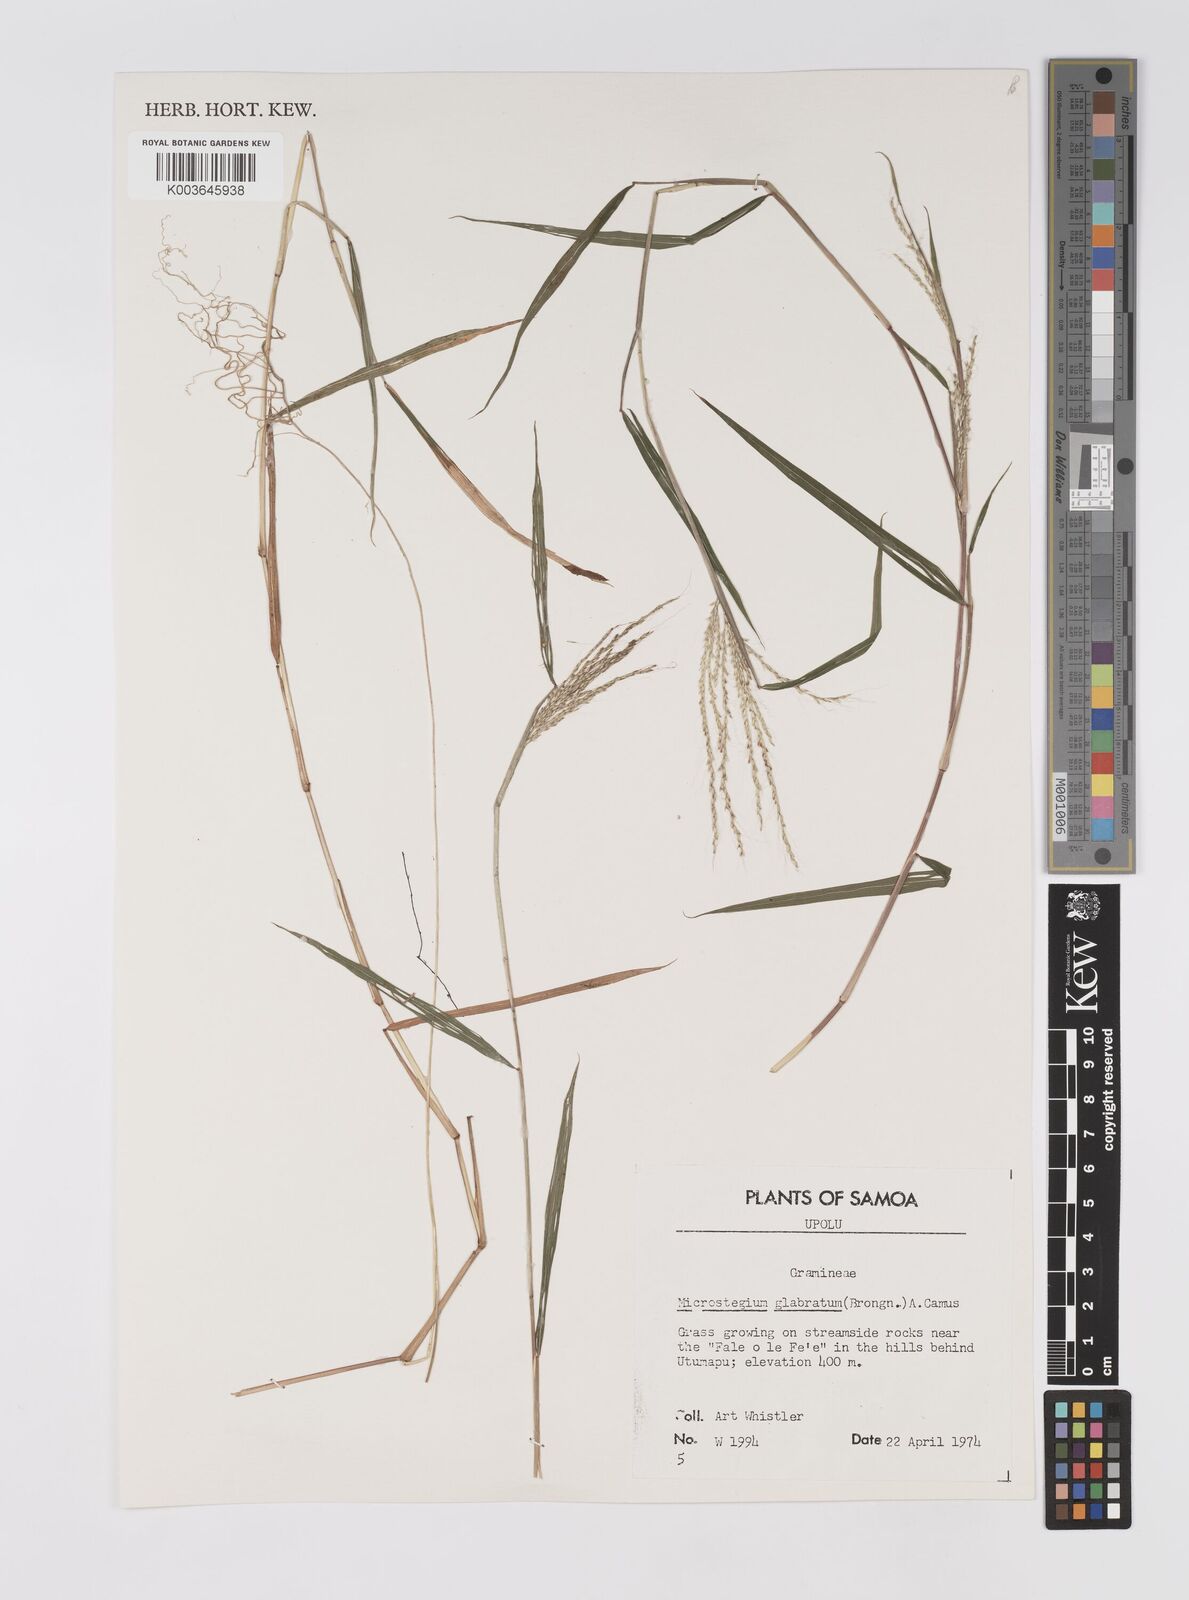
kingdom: Plantae
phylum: Tracheophyta
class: Liliopsida
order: Poales
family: Poaceae
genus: Microstegium
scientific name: Microstegium glabratum
